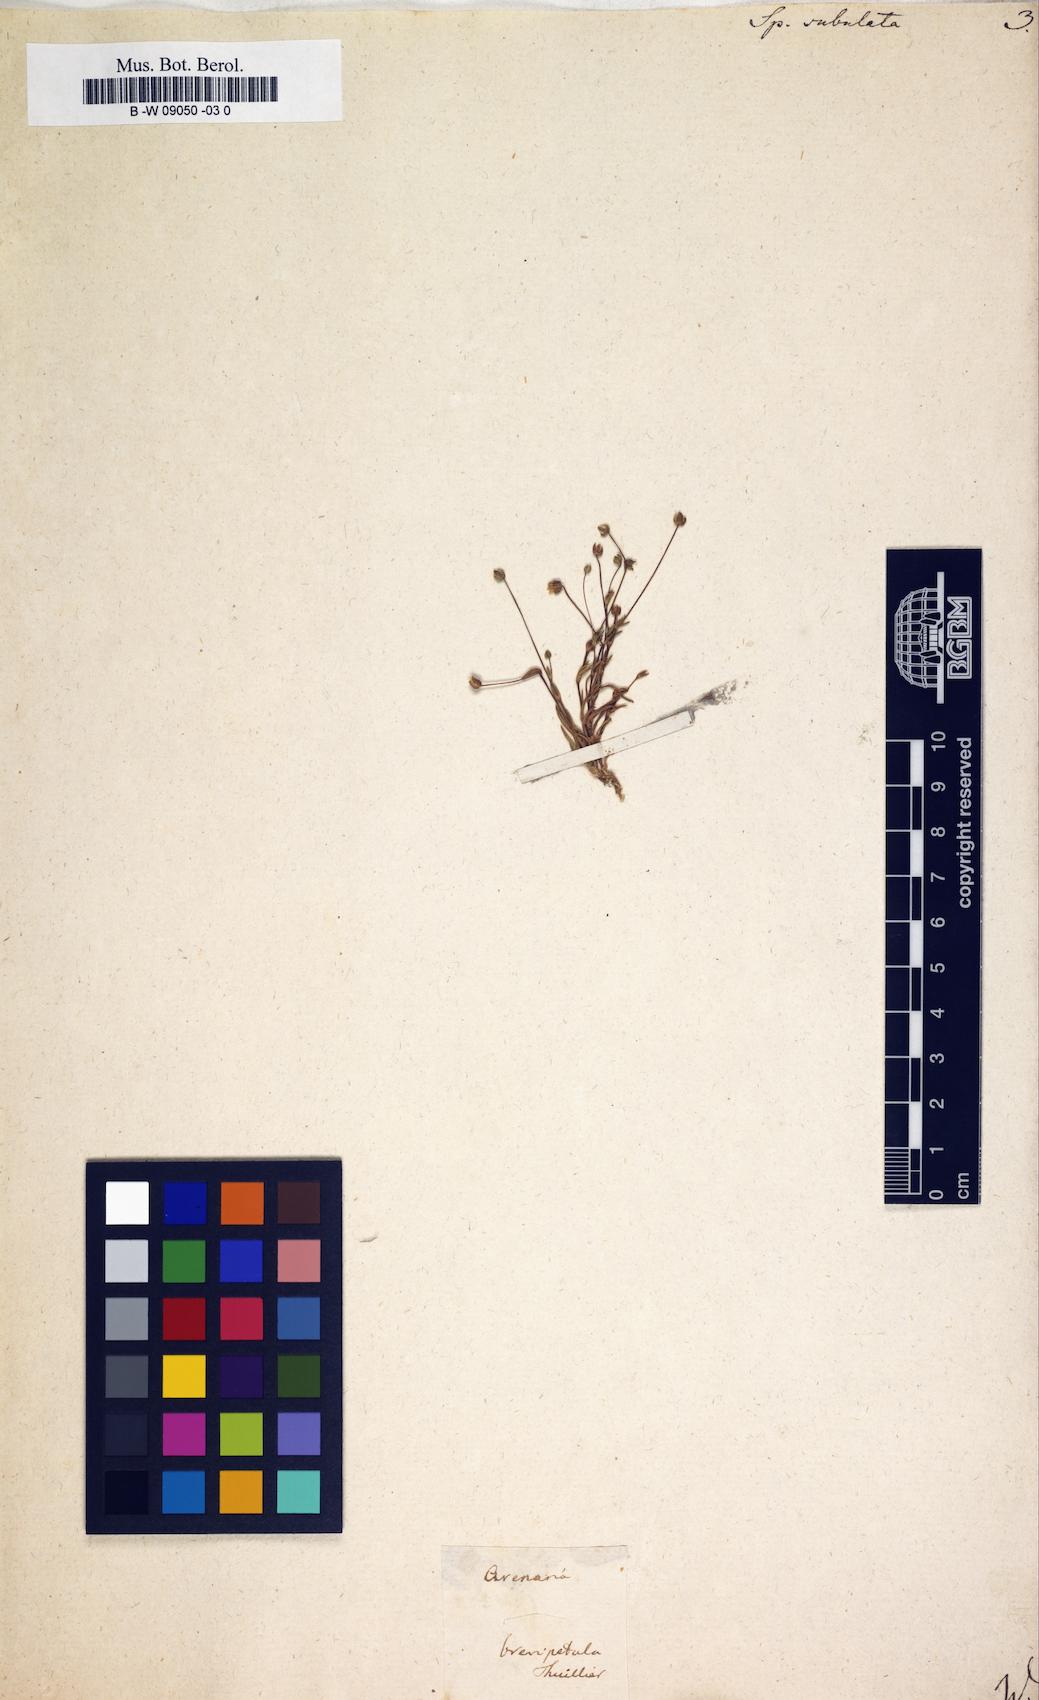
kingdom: Plantae
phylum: Tracheophyta
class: Magnoliopsida
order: Caryophyllales
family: Caryophyllaceae
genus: Sagina
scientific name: Sagina alexandrae
